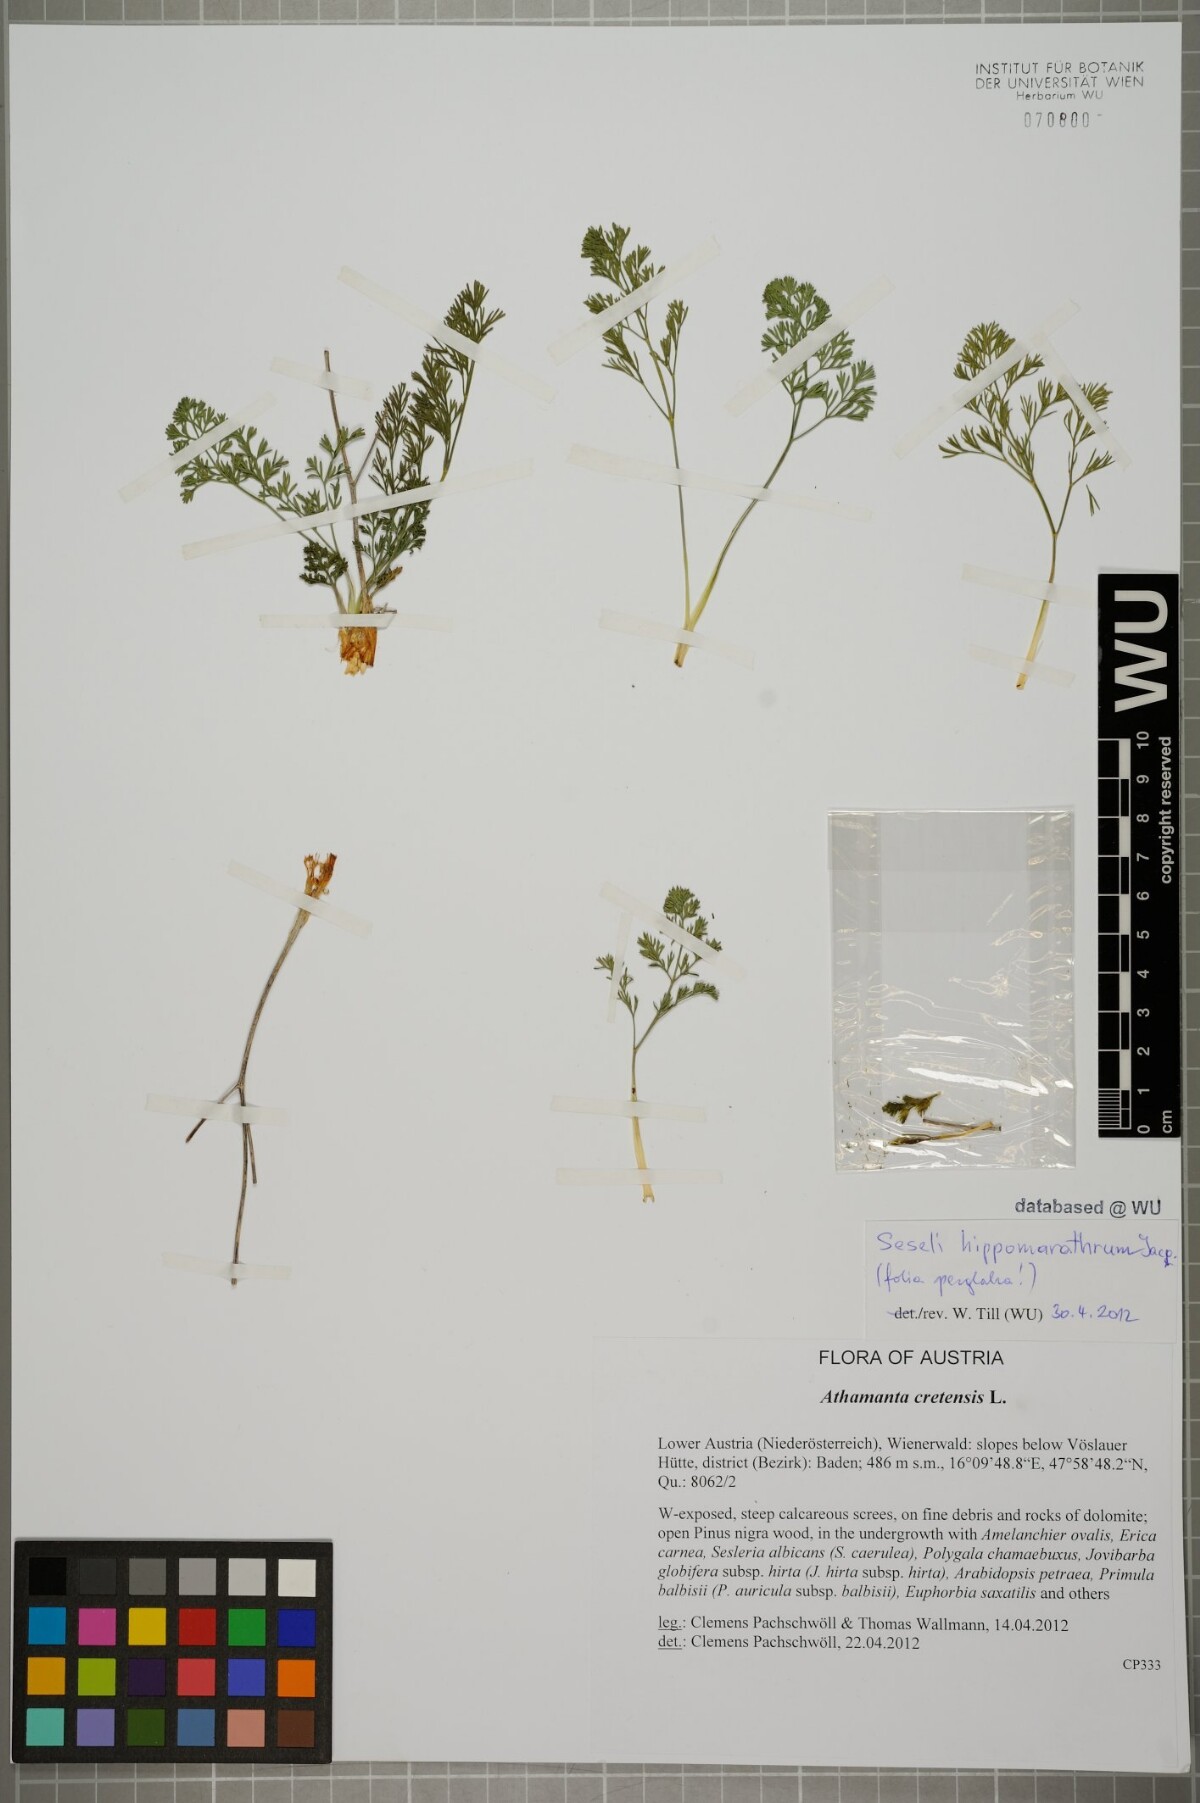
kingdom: Plantae
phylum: Tracheophyta
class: Magnoliopsida
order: Apiales
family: Apiaceae
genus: Hippomarathrum
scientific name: Hippomarathrum vulgare
